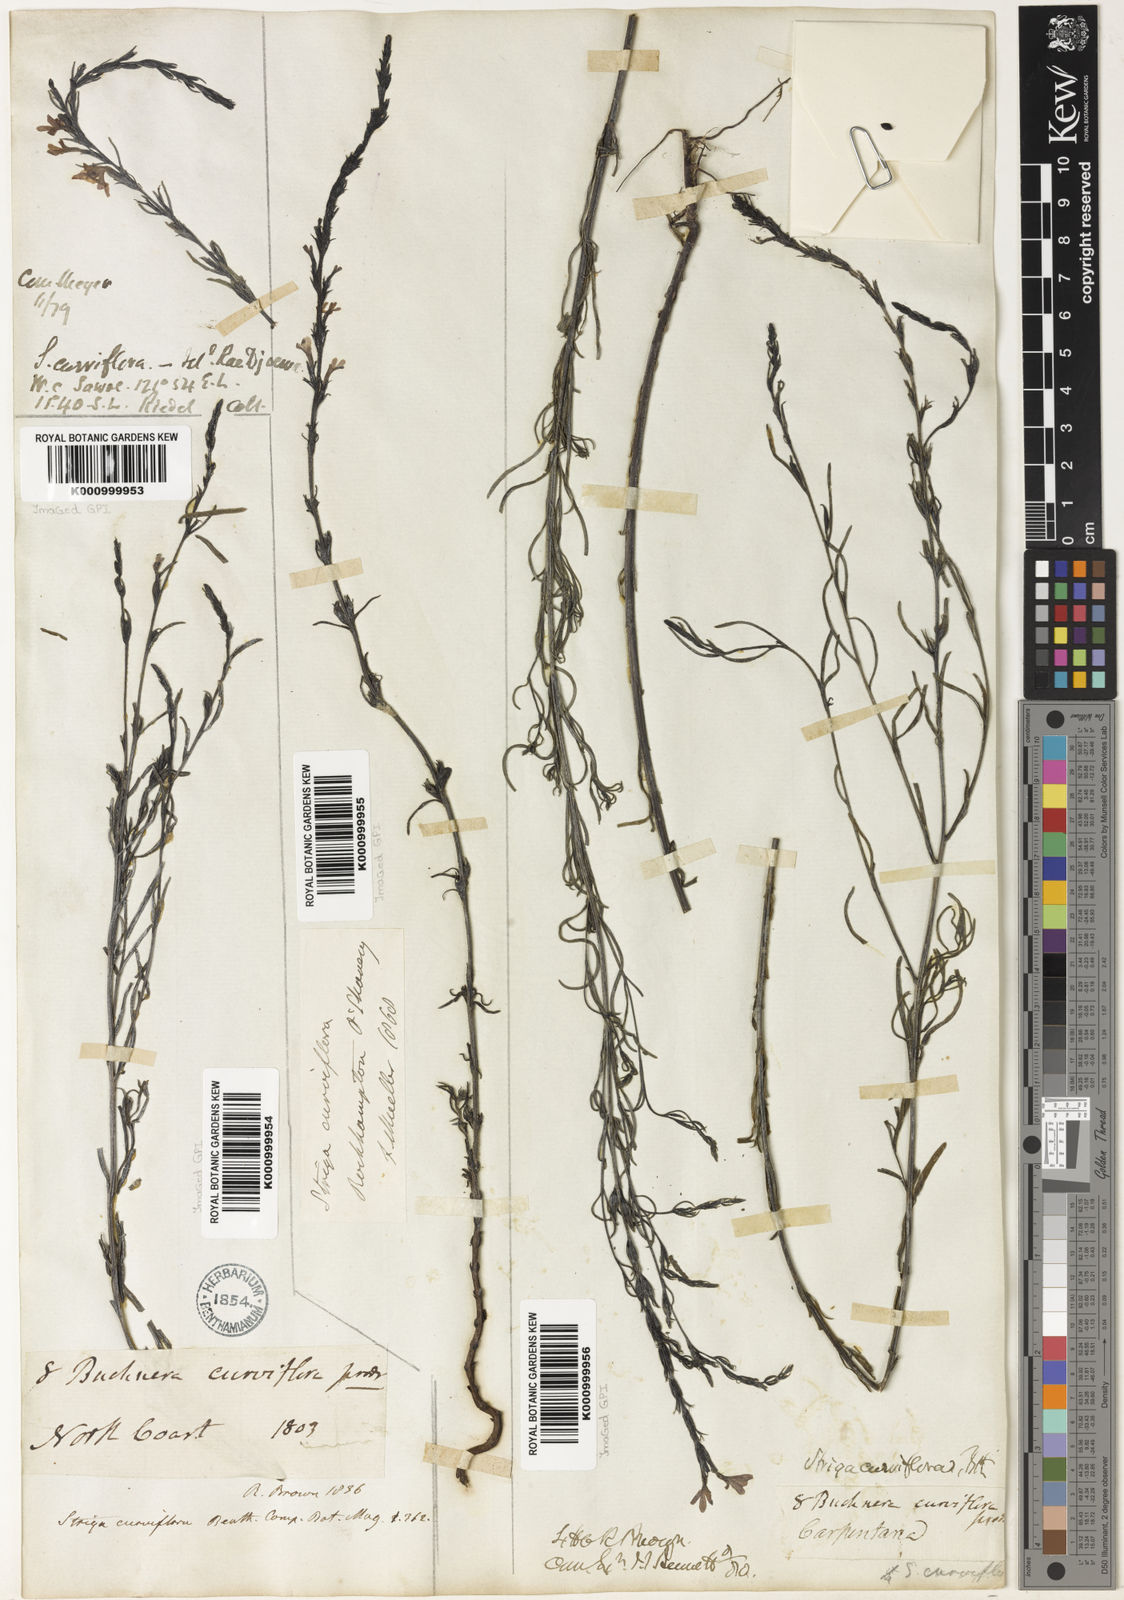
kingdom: Plantae
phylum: Tracheophyta
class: Magnoliopsida
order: Lamiales
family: Orobanchaceae
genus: Striga
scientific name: Striga curviflora
